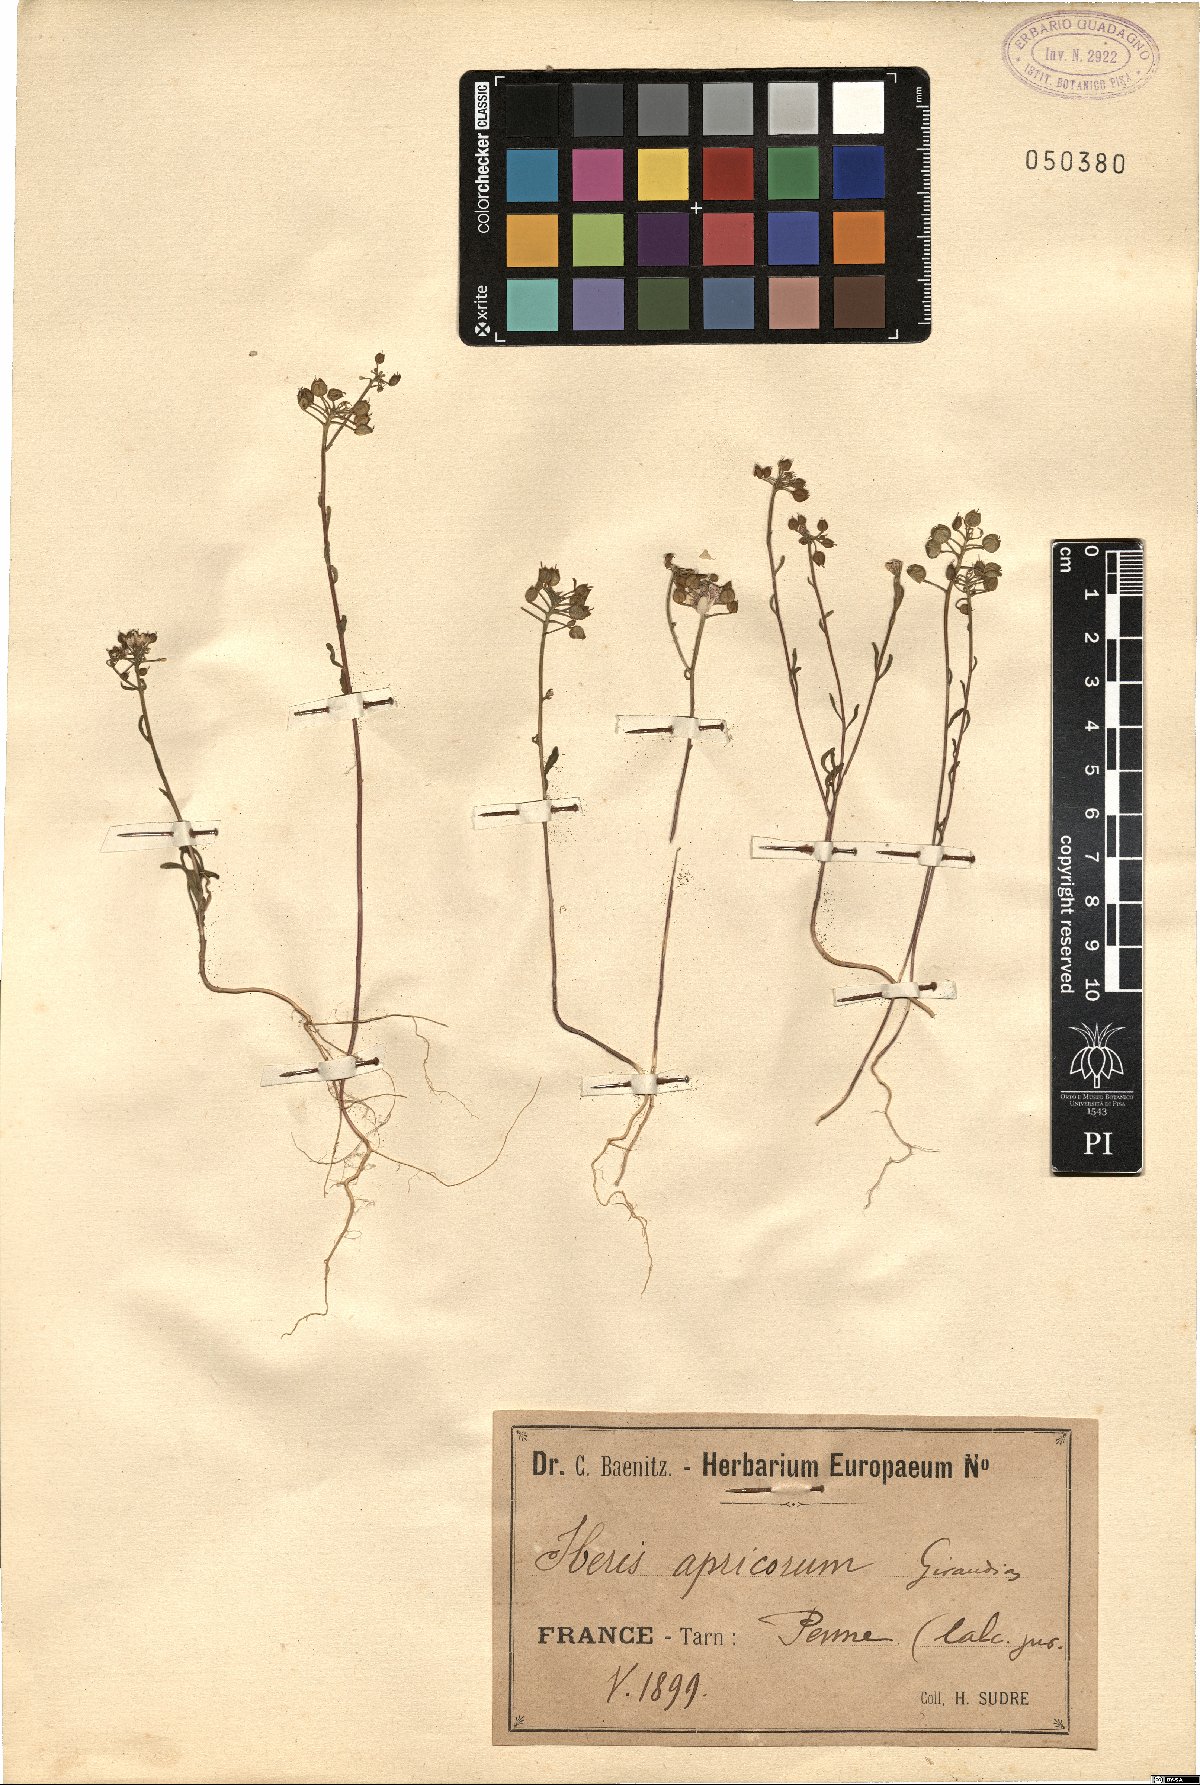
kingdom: Plantae
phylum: Tracheophyta
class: Magnoliopsida
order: Brassicales
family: Brassicaceae
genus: Iberis
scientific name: Iberis amara
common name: Annual candytuft
